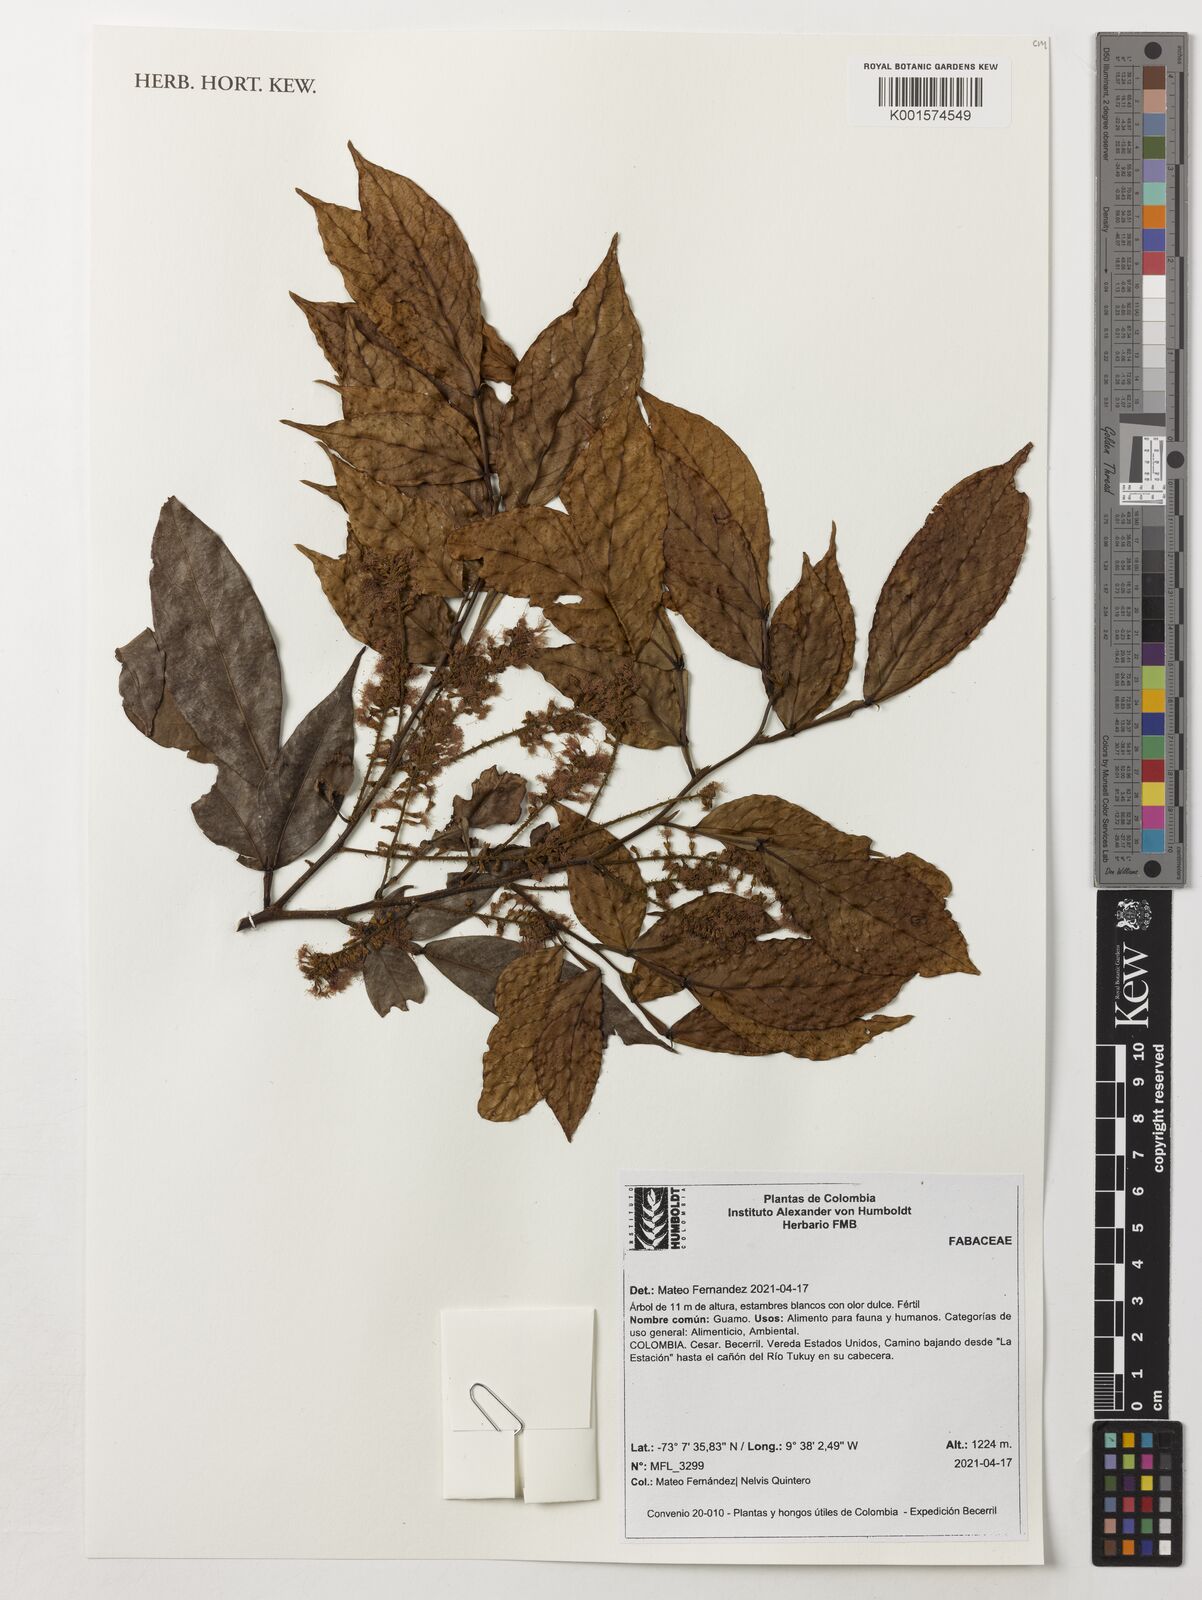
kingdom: Plantae
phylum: Tracheophyta
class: Magnoliopsida
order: Fabales
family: Fabaceae
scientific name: Fabaceae
